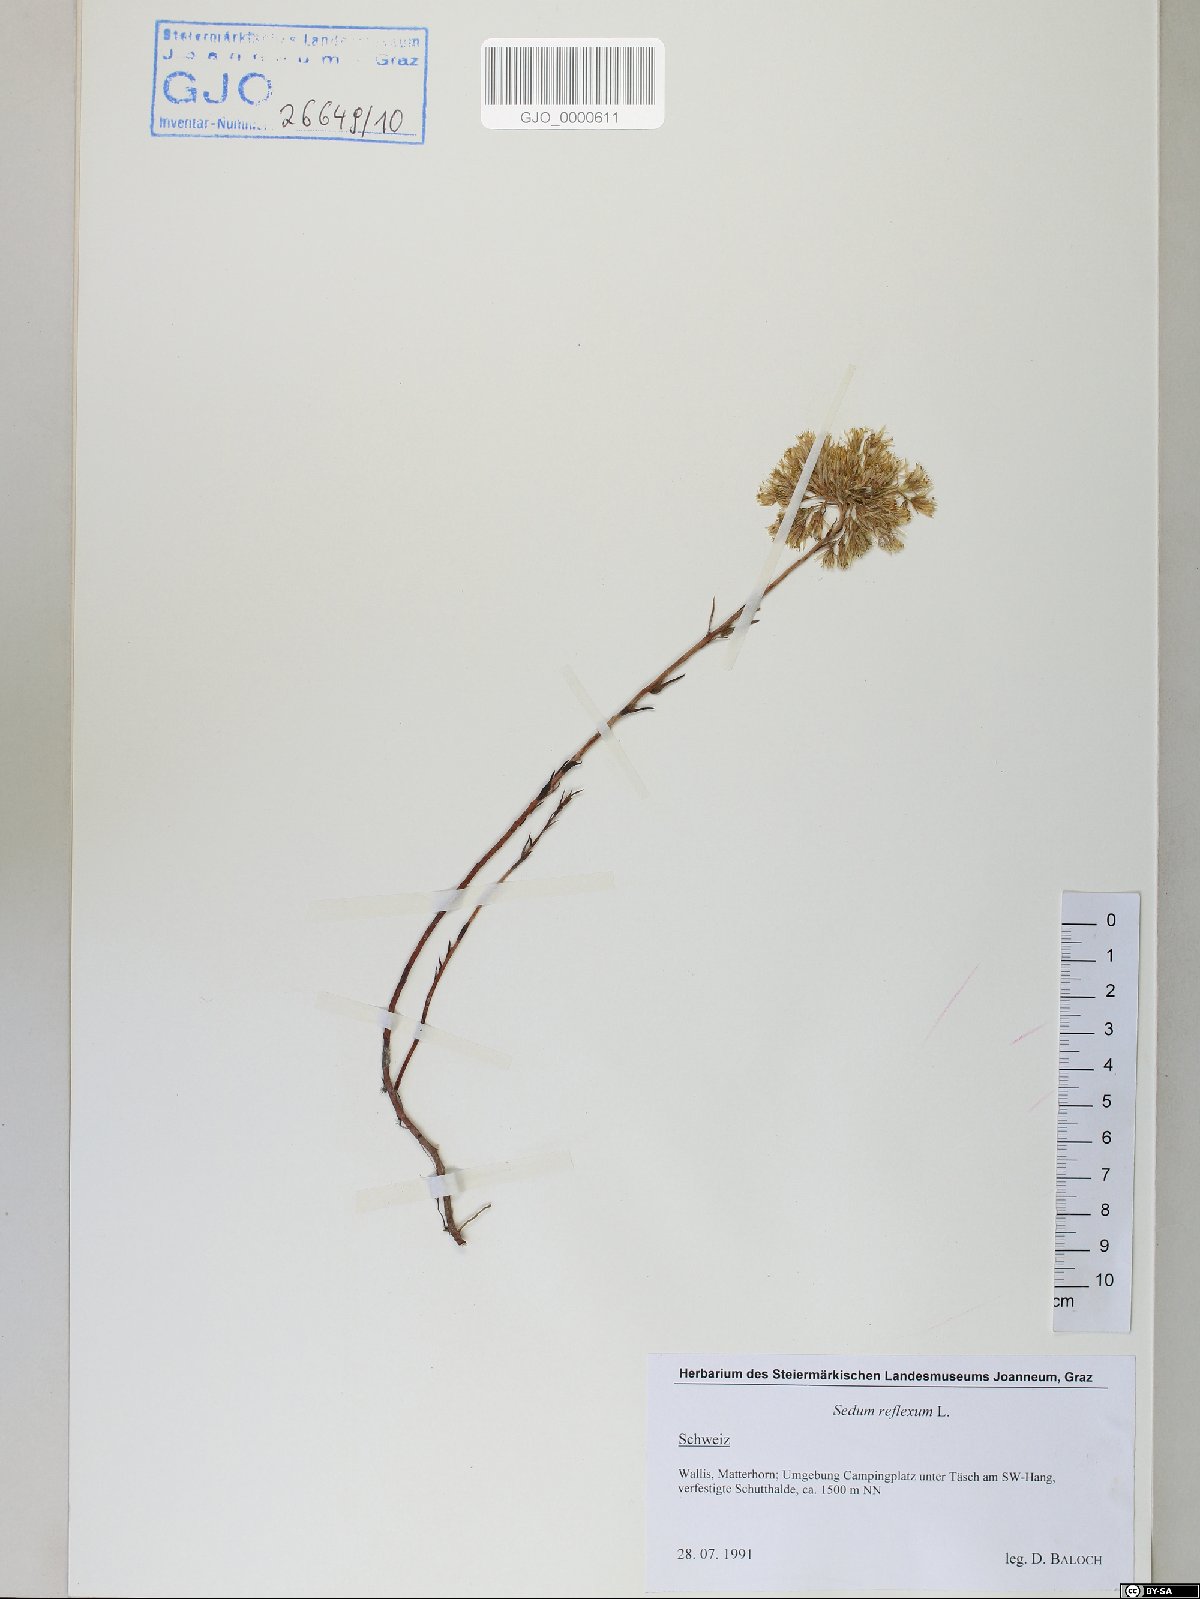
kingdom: Plantae
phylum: Tracheophyta
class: Magnoliopsida
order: Saxifragales
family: Crassulaceae
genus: Petrosedum
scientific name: Petrosedum rupestre
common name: Jenny's stonecrop
